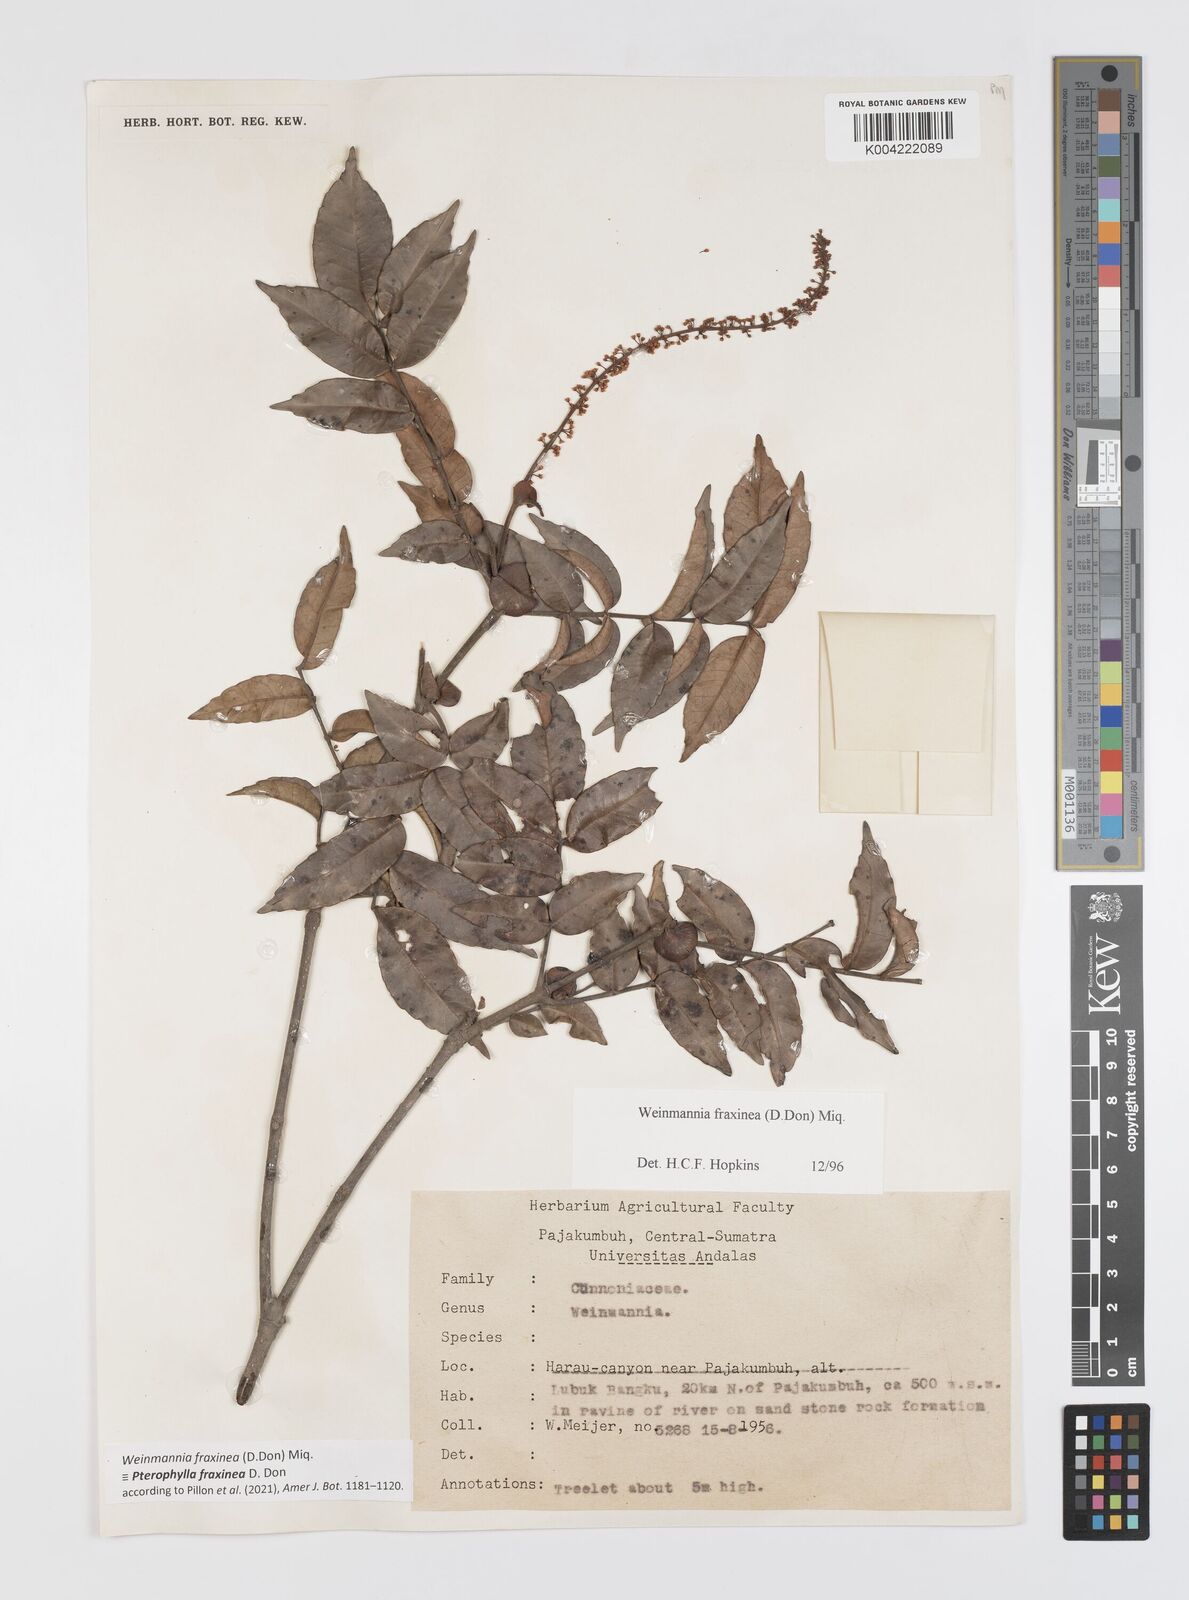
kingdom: Plantae
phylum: Tracheophyta
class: Magnoliopsida
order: Oxalidales
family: Cunoniaceae
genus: Pterophylla
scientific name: Pterophylla fraxinea
